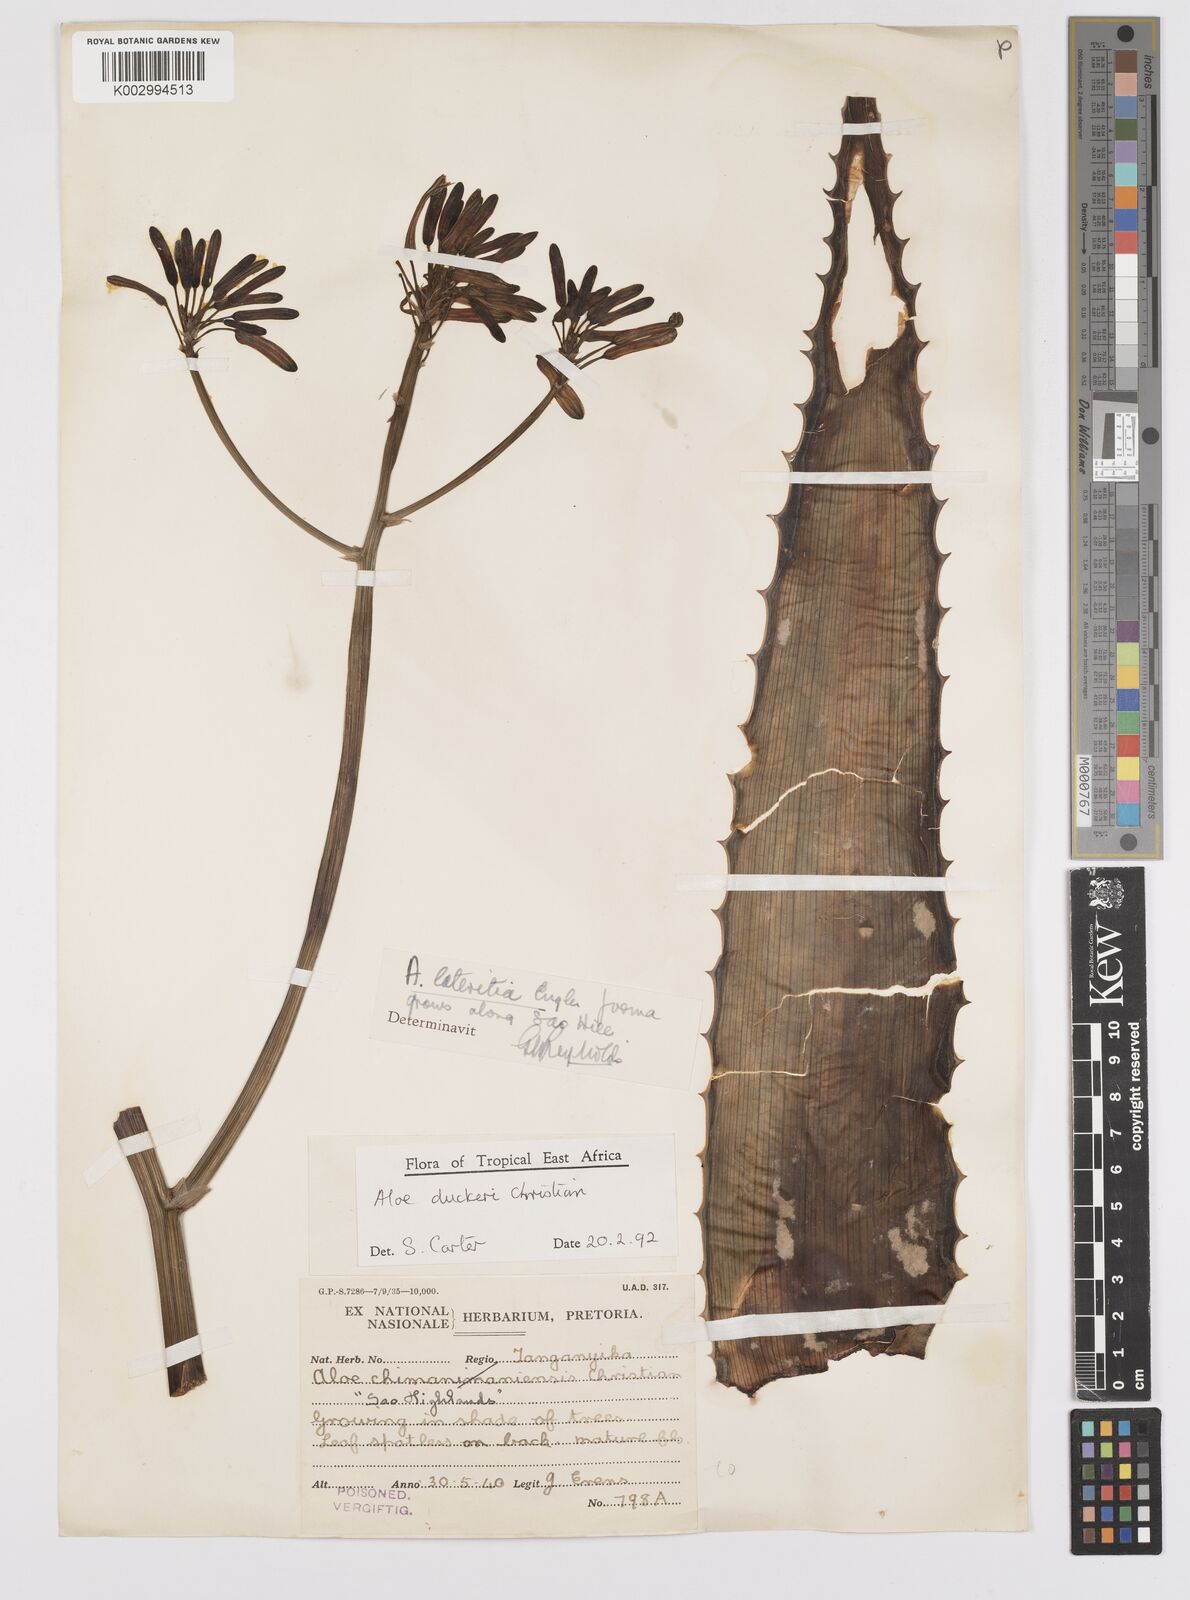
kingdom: Plantae
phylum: Tracheophyta
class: Liliopsida
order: Asparagales
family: Asphodelaceae
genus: Aloe
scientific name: Aloe duckeri
